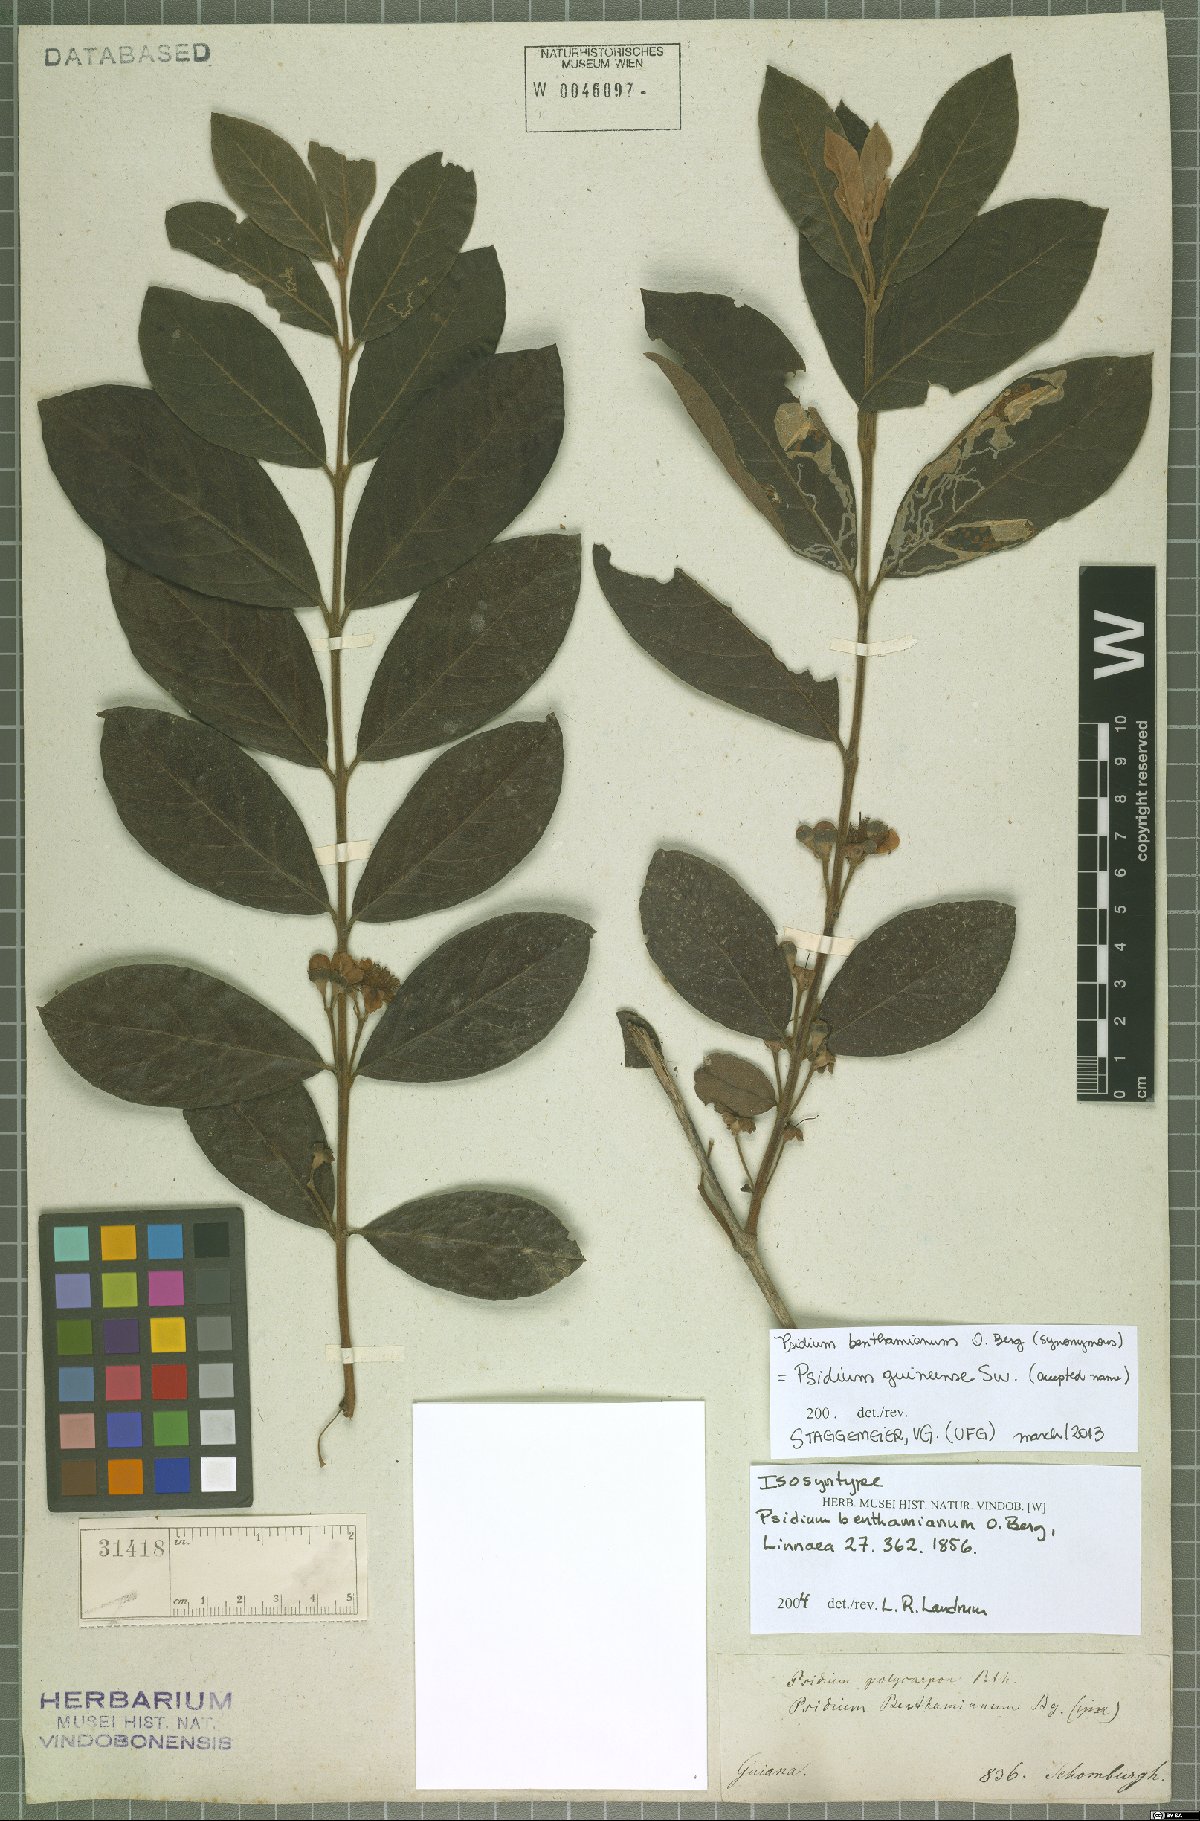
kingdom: Plantae
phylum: Tracheophyta
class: Magnoliopsida
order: Myrtales
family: Myrtaceae
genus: Psidium
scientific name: Psidium guineense
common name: Brazilian guava
